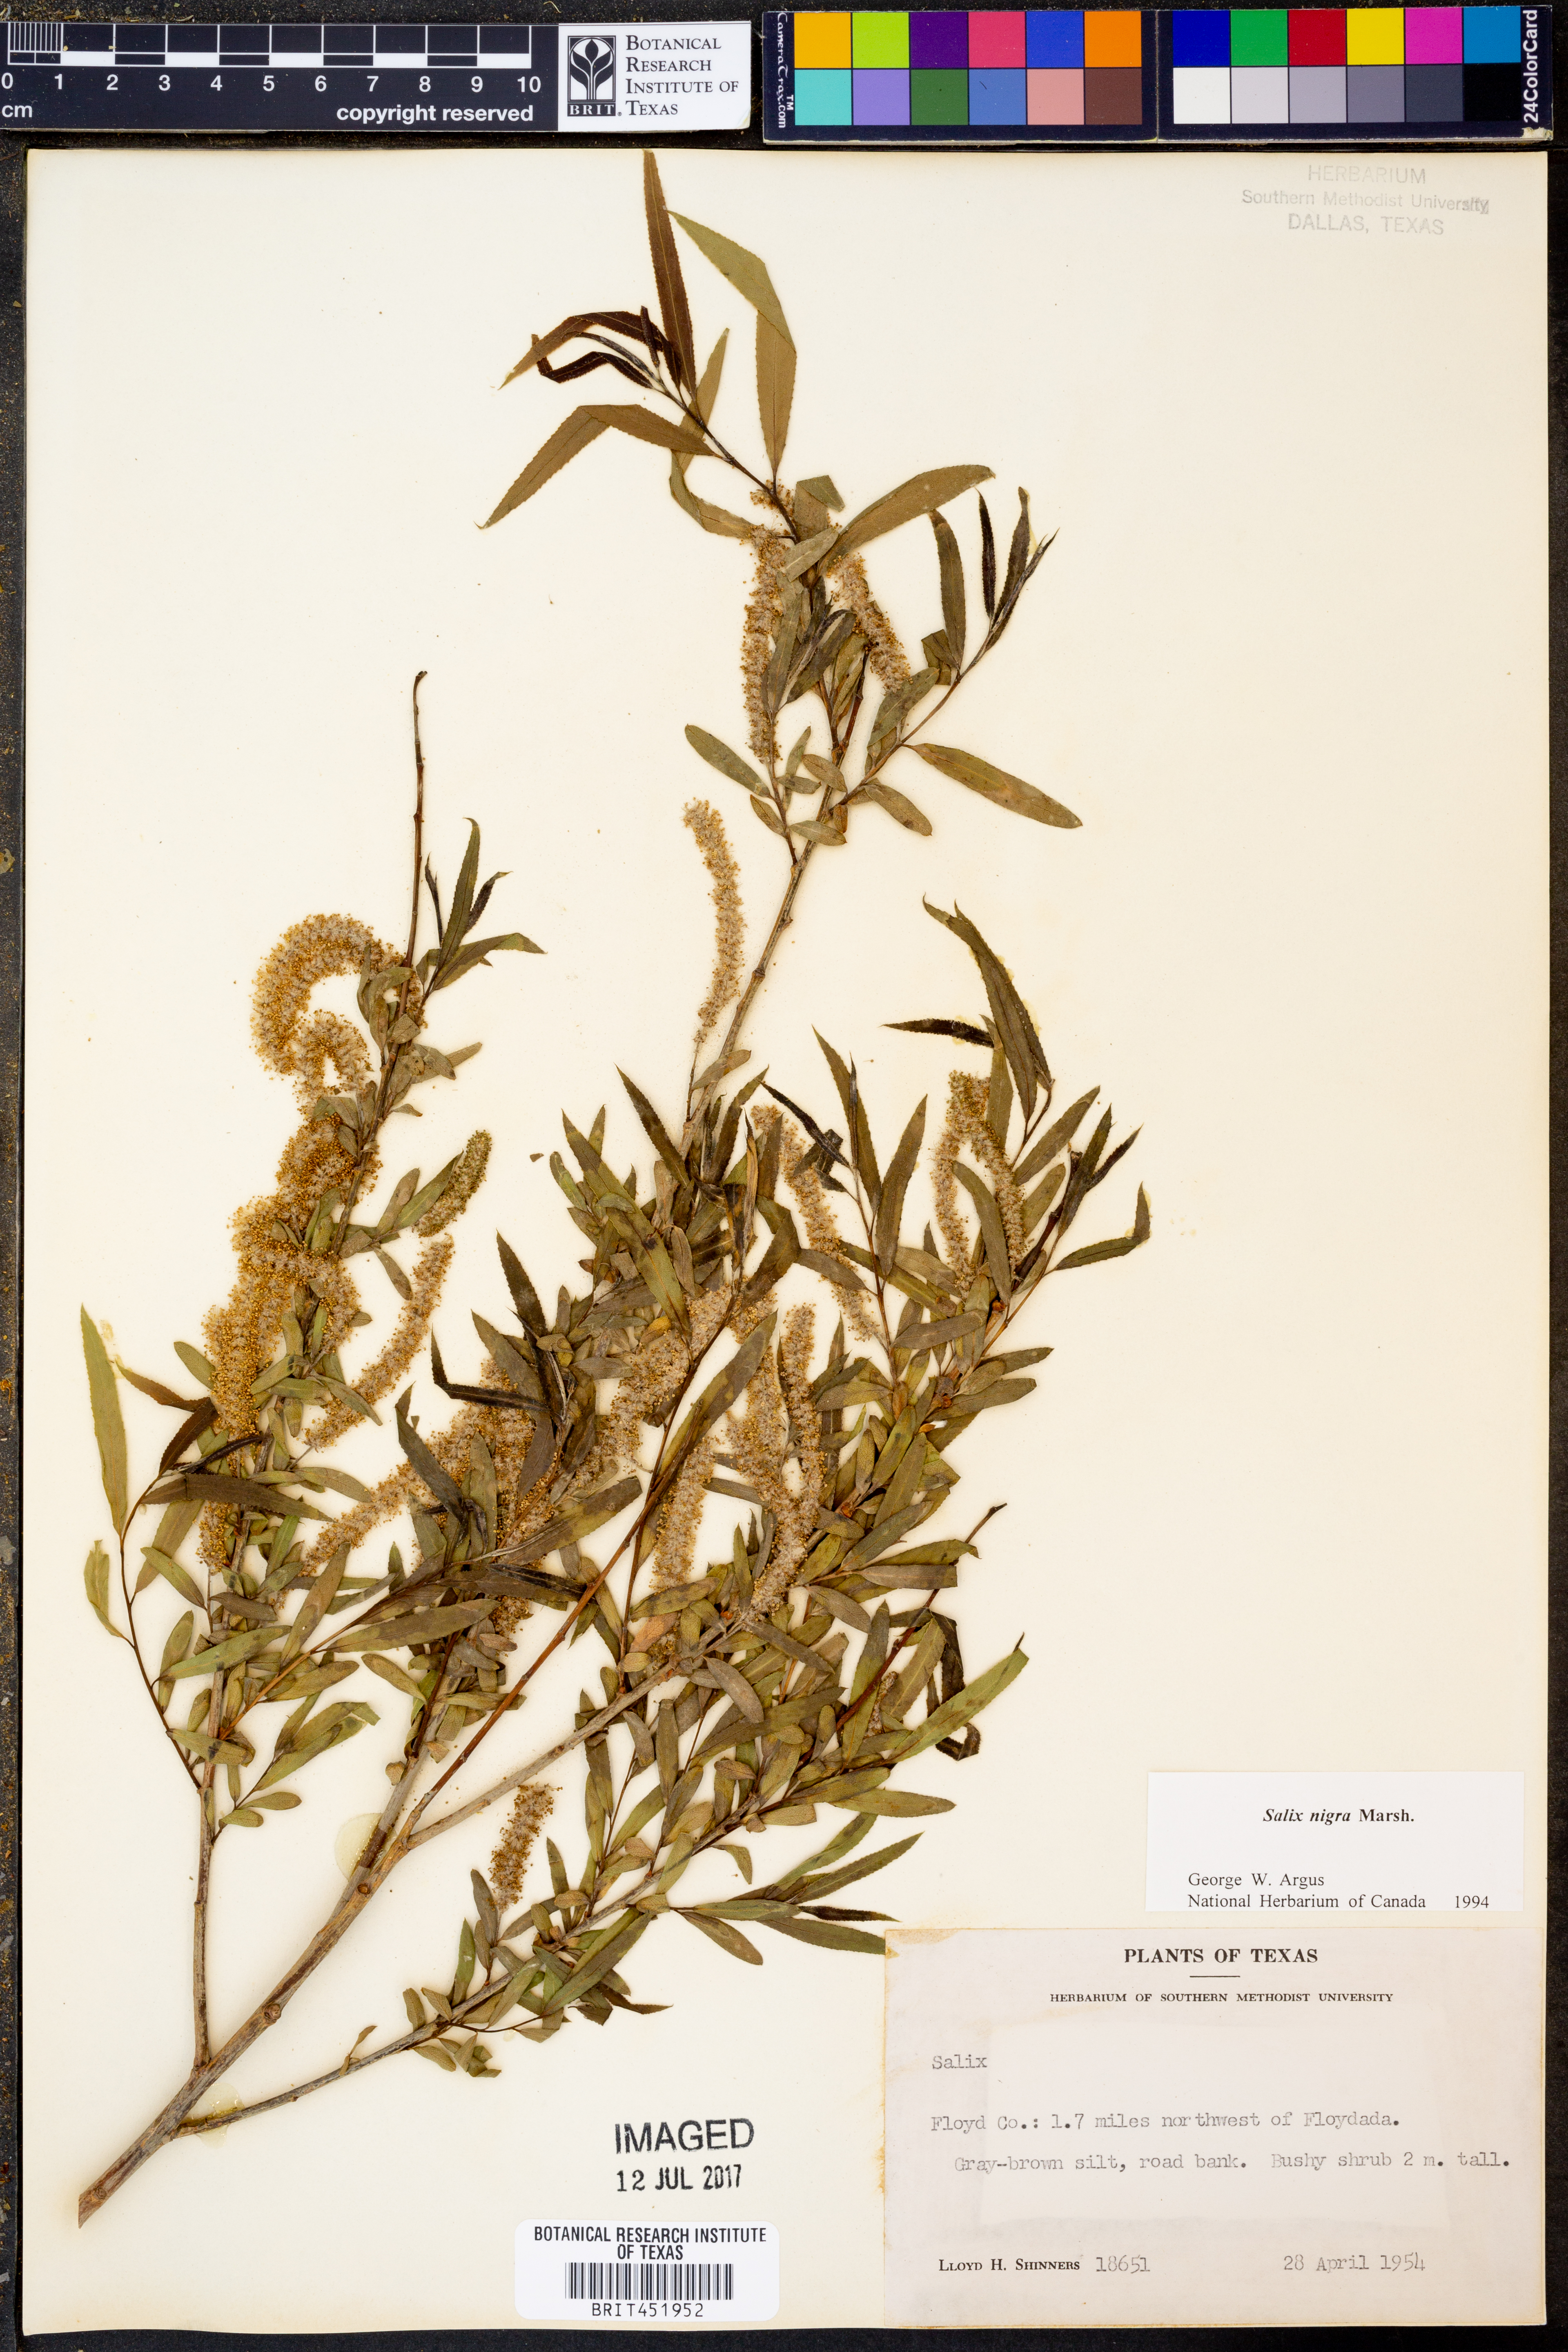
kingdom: Plantae
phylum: Tracheophyta
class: Magnoliopsida
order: Malpighiales
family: Salicaceae
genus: Salix
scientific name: Salix nigra
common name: Black willow
